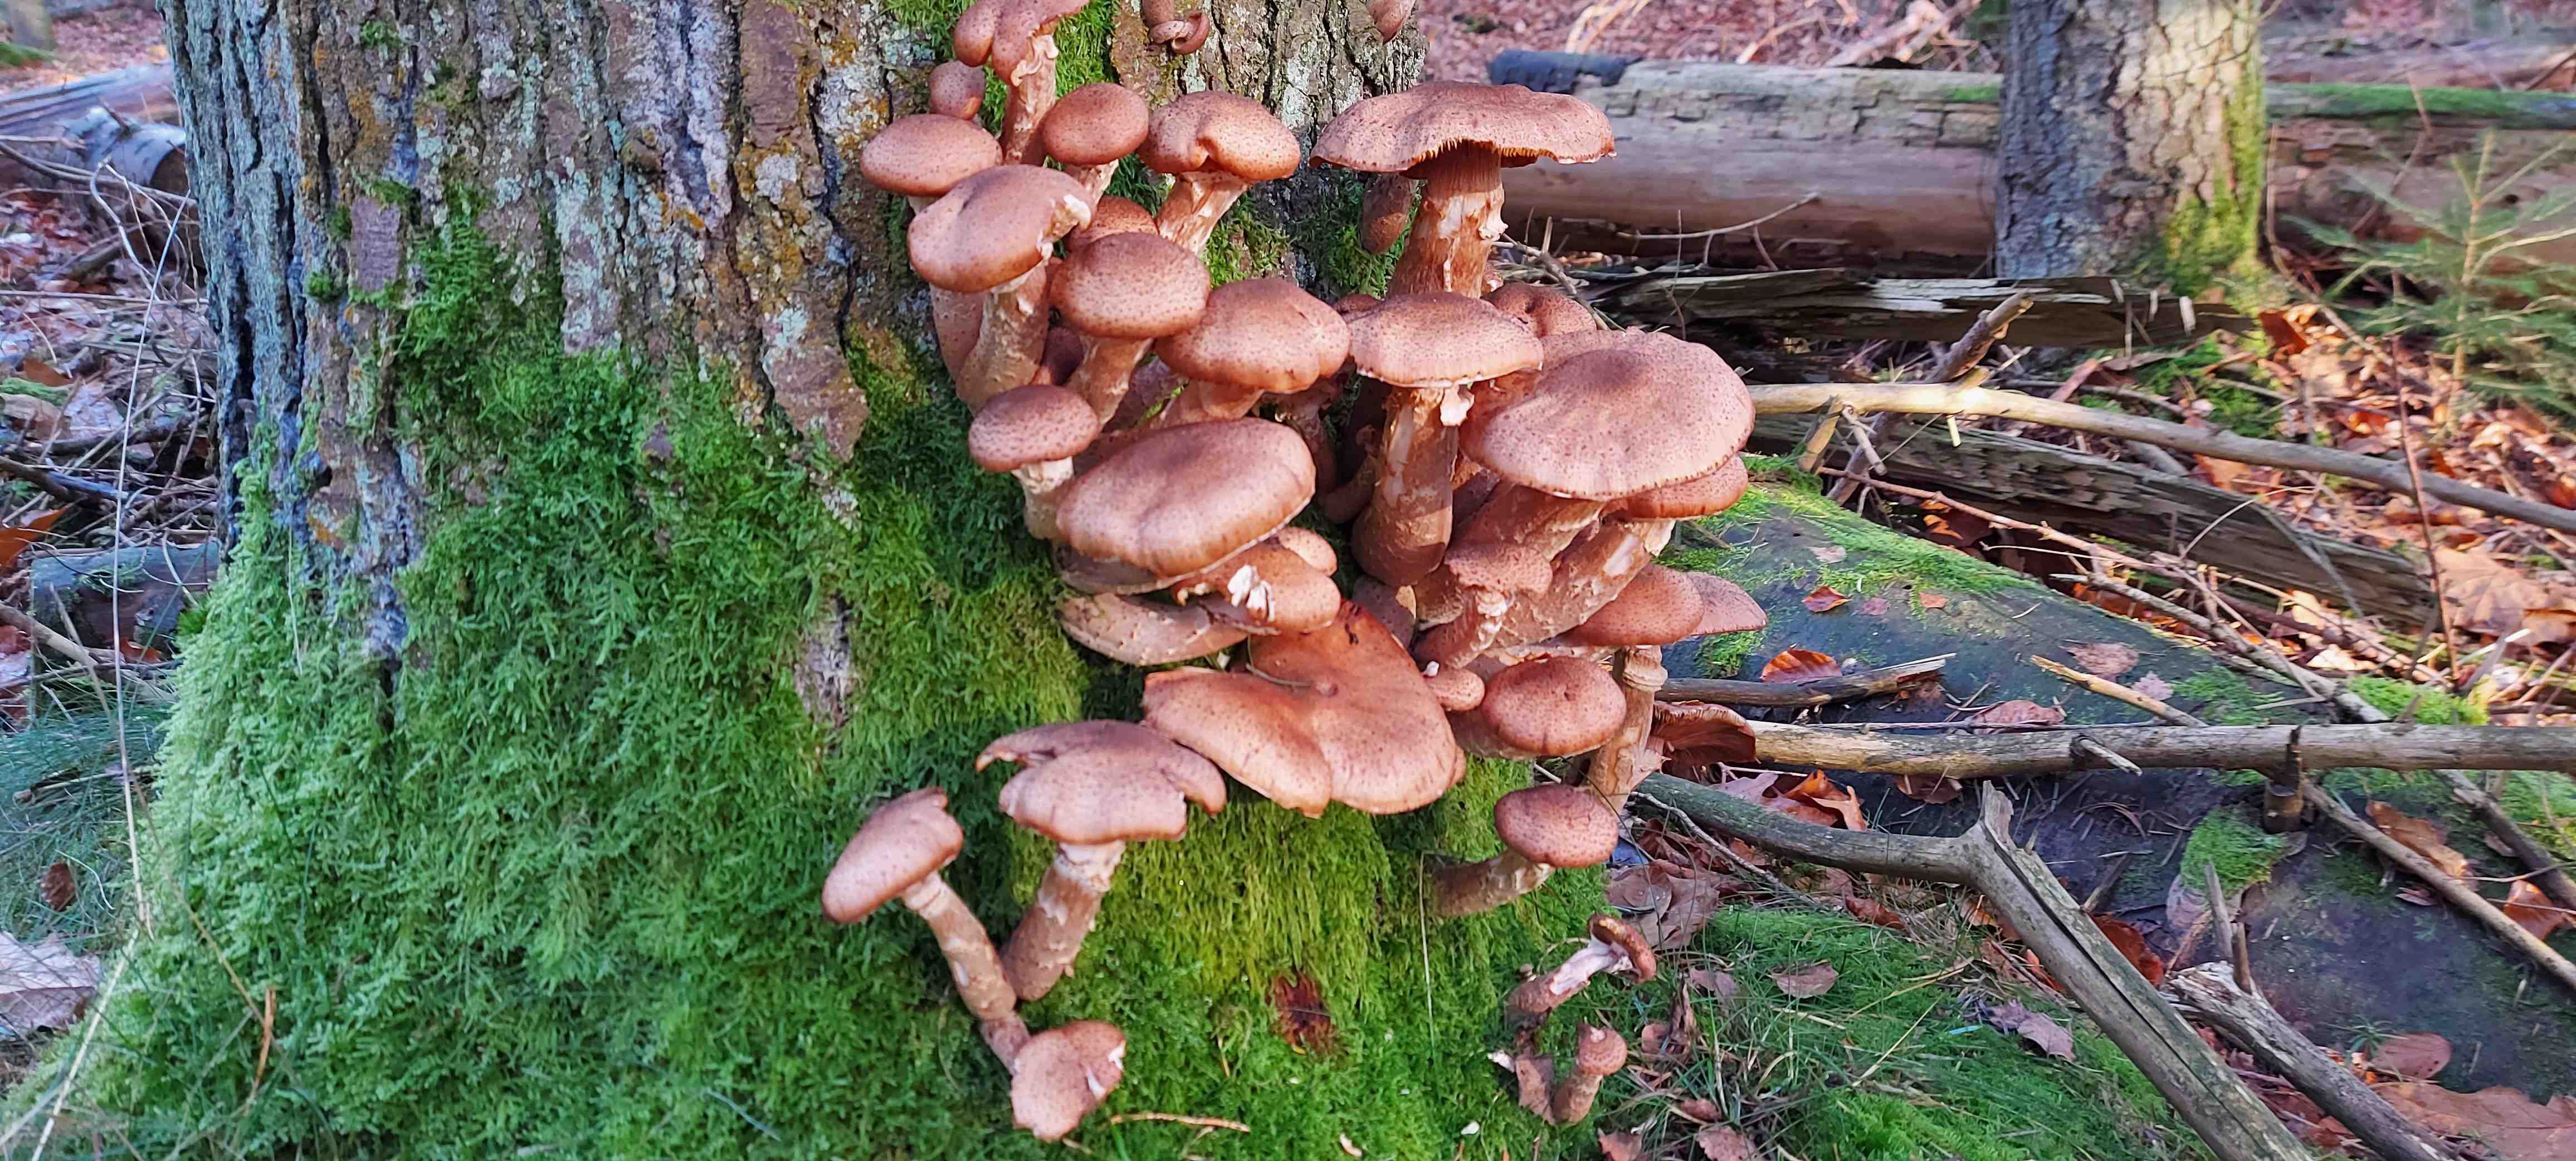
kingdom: Fungi
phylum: Basidiomycota
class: Agaricomycetes
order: Agaricales
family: Physalacriaceae
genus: Armillaria
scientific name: Armillaria ostoyae
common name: mørk honningsvamp
